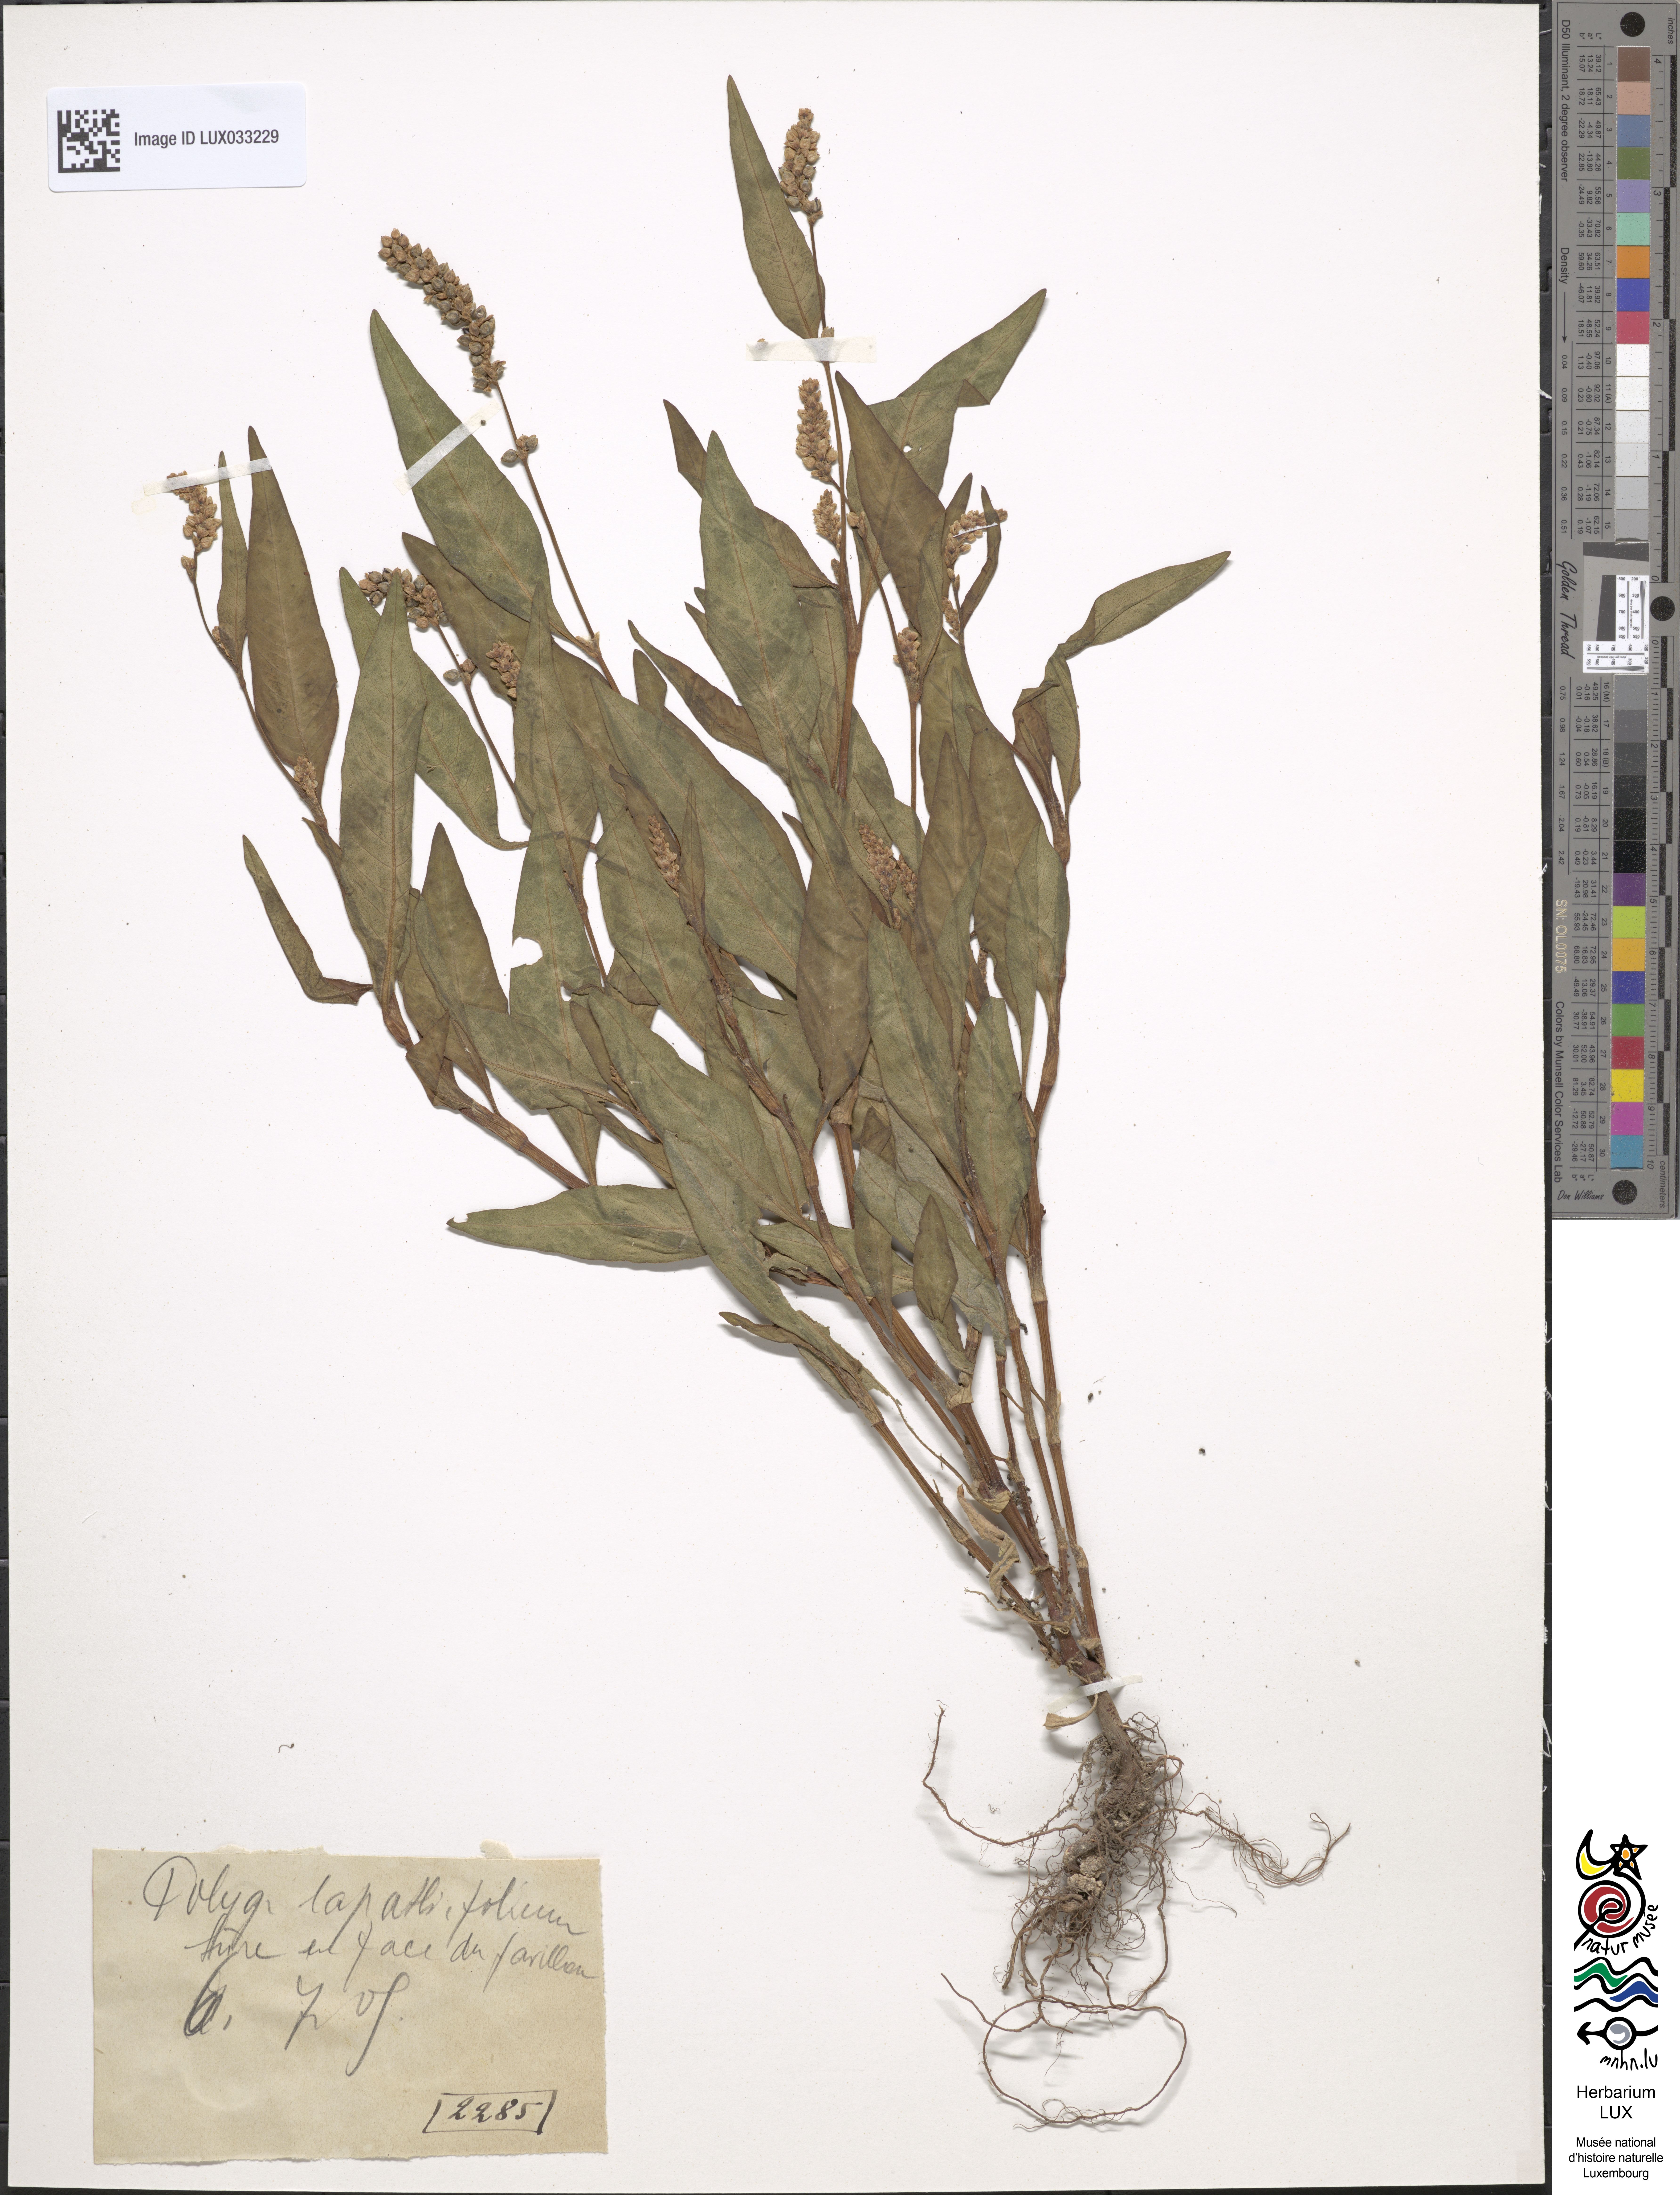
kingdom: Plantae
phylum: Tracheophyta
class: Magnoliopsida
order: Caryophyllales
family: Polygonaceae
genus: Persicaria
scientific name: Persicaria lapathifolia
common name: Curlytop knotweed
